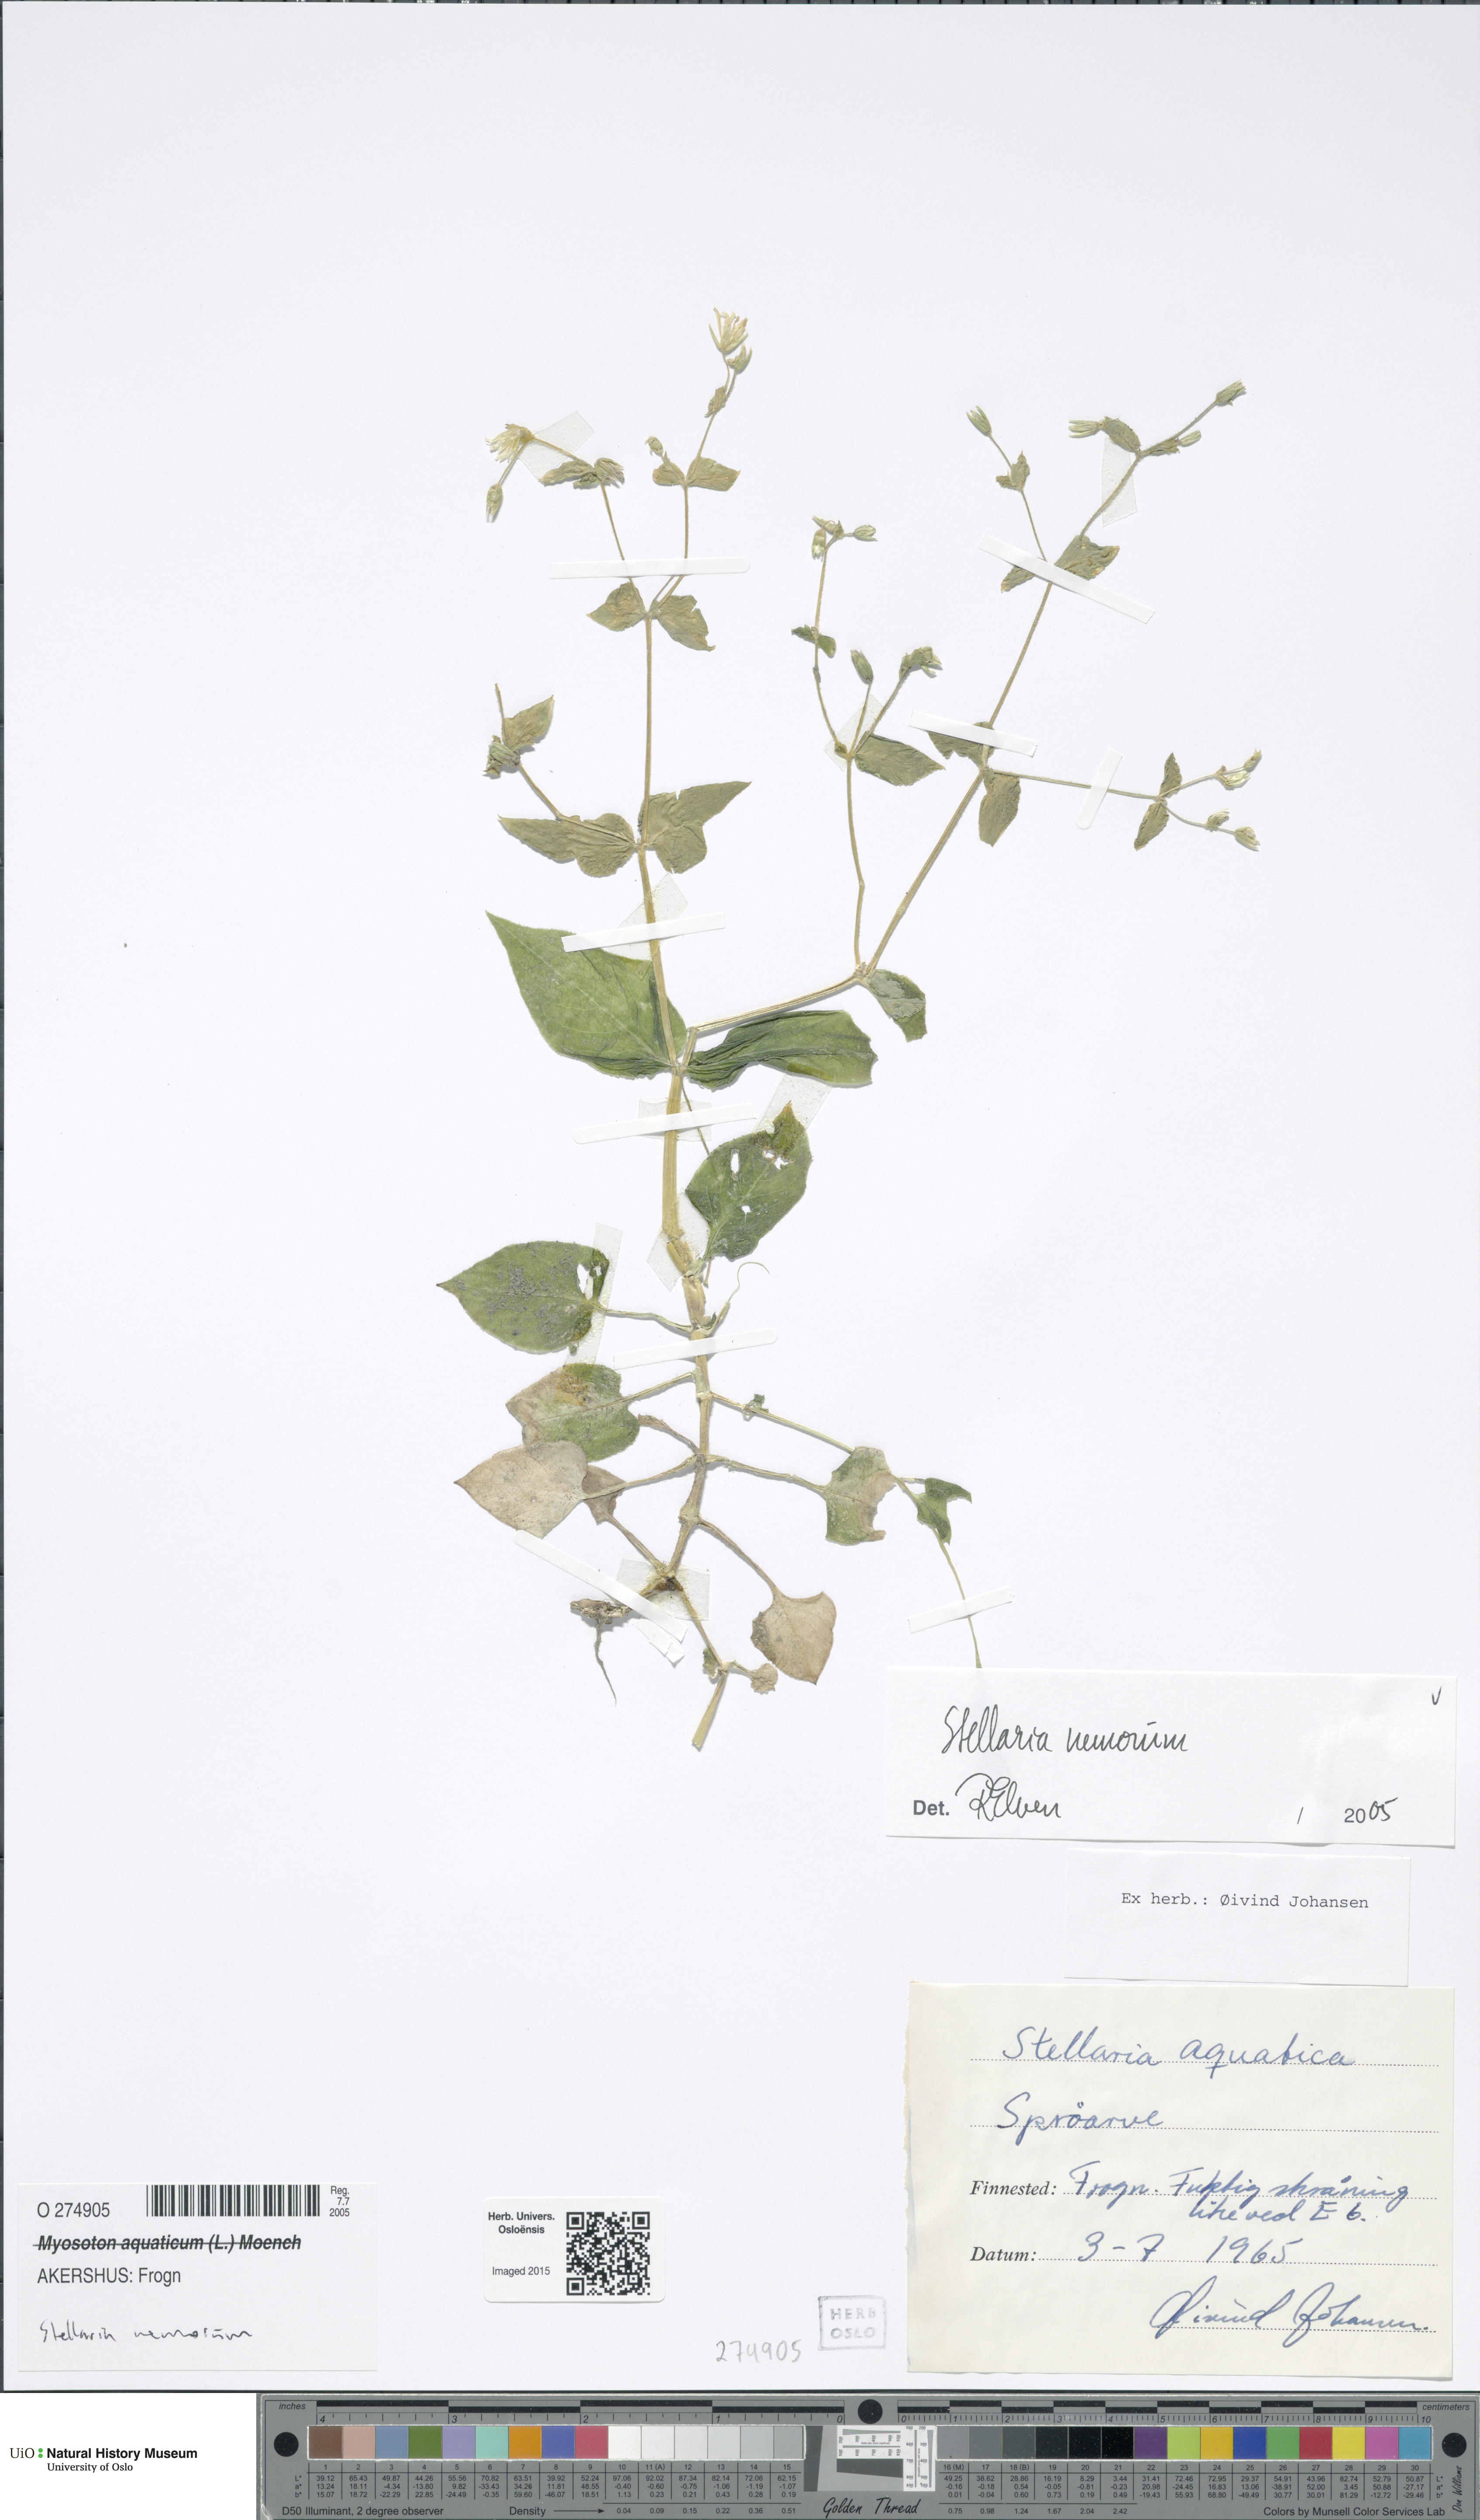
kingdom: Plantae
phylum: Tracheophyta
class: Magnoliopsida
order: Caryophyllales
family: Caryophyllaceae
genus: Stellaria
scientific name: Stellaria nemorum
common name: Wood stitchwort
